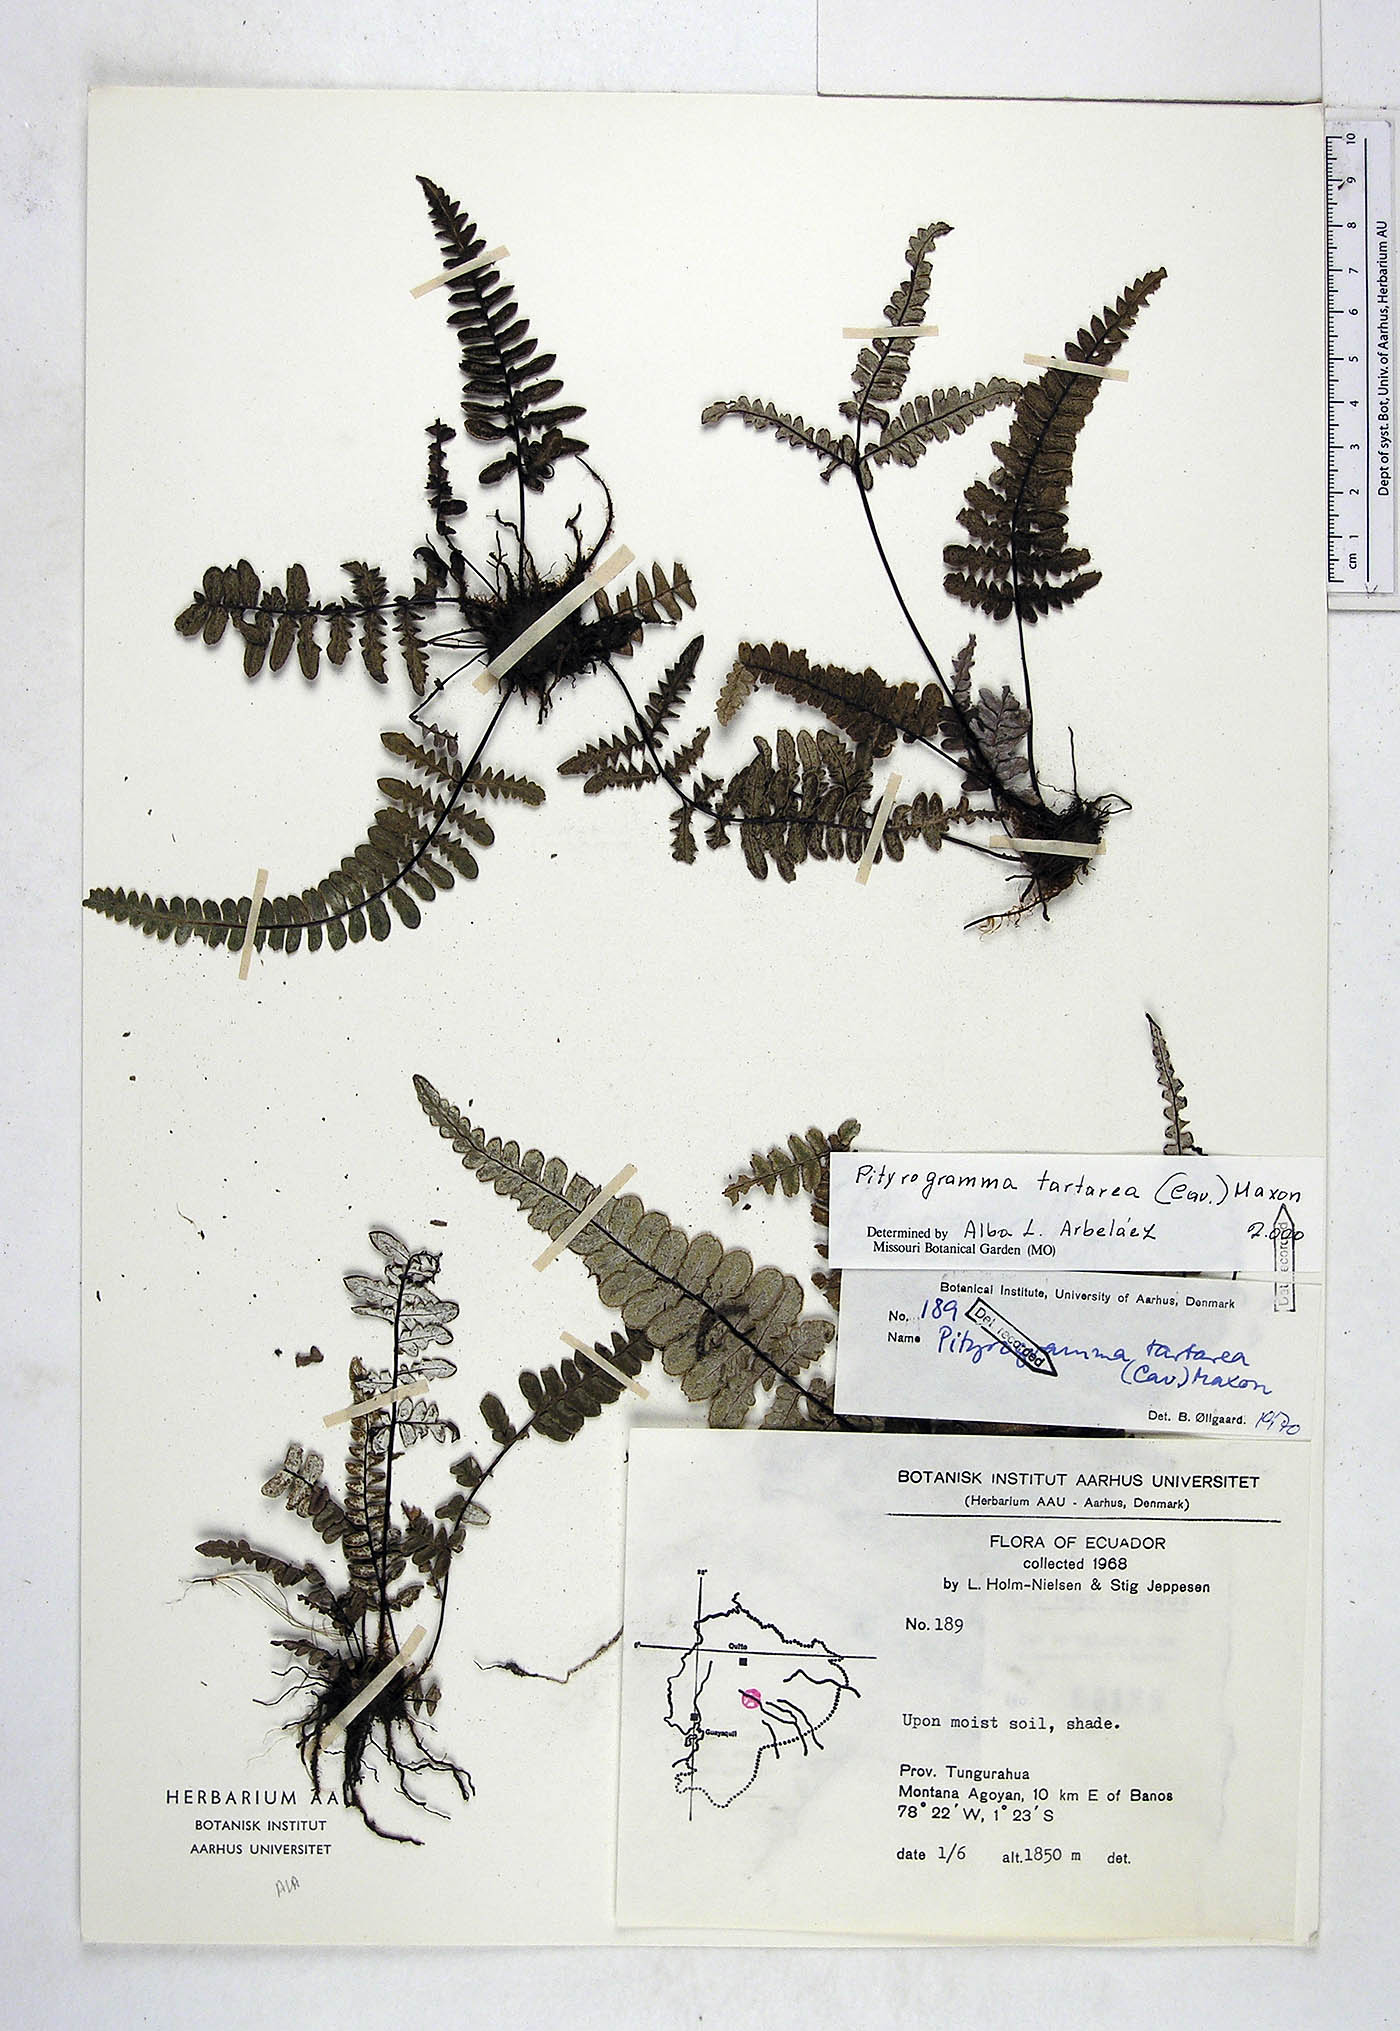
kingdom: Plantae
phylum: Tracheophyta
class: Polypodiopsida
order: Polypodiales
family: Pteridaceae
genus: Pityrogramma
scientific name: Pityrogramma ebenea
